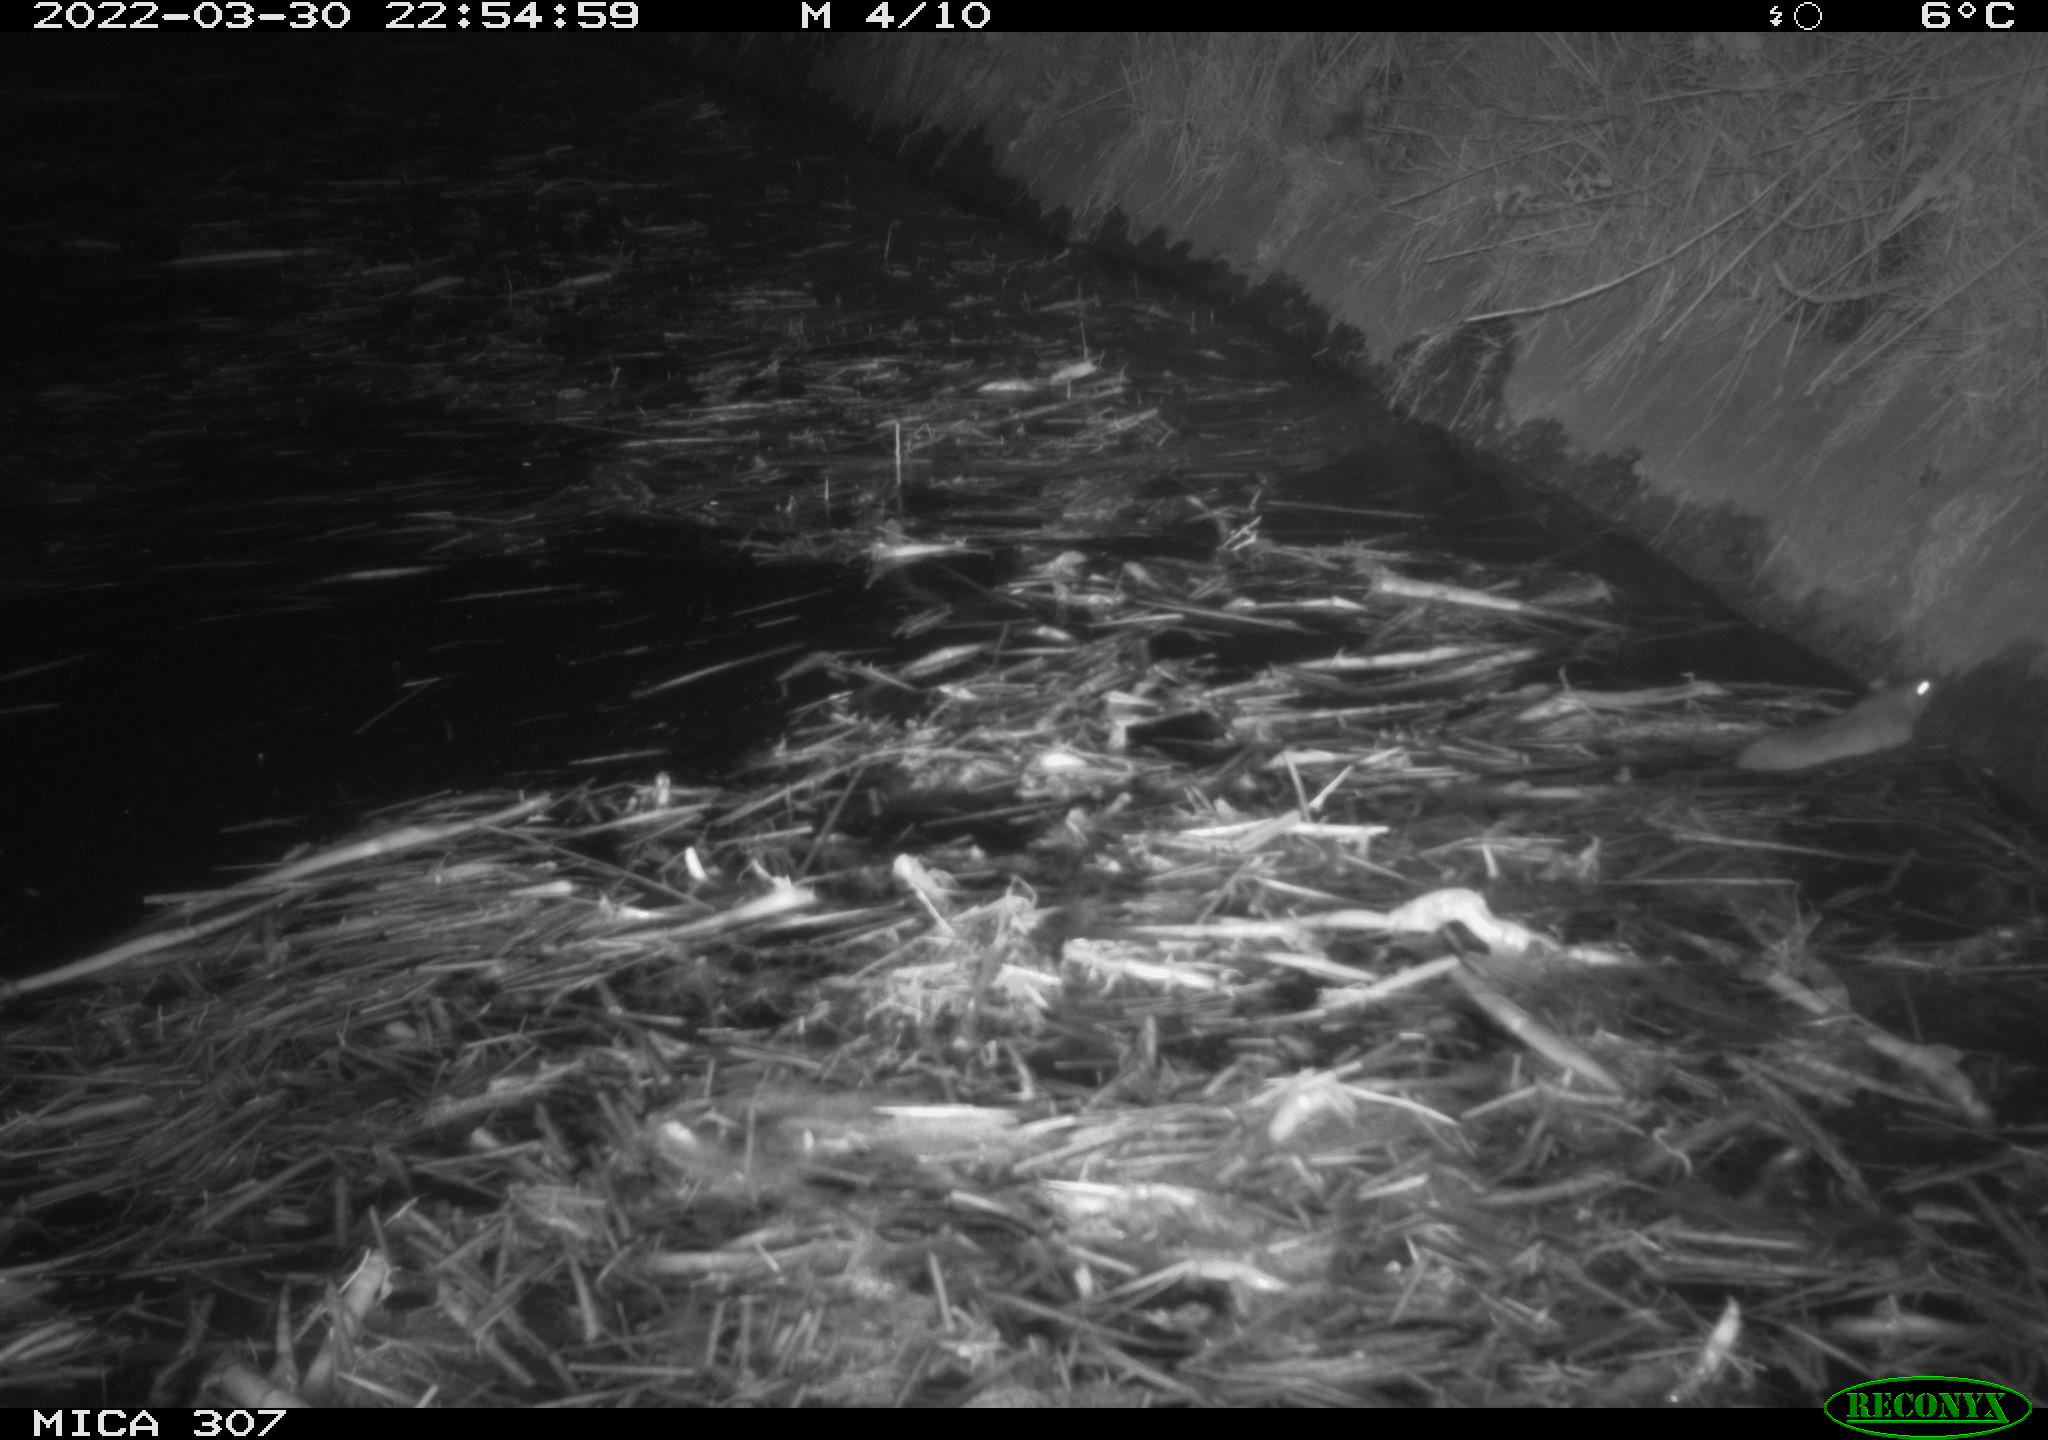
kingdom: Animalia
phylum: Chordata
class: Mammalia
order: Rodentia
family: Muridae
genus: Rattus
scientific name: Rattus norvegicus
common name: Brown rat
